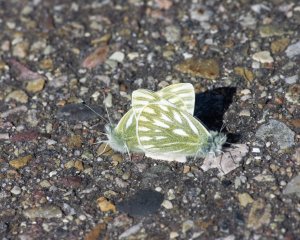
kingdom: Animalia
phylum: Arthropoda
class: Insecta
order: Lepidoptera
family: Pieridae
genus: Pontia
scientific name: Pontia occidentalis
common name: Western White
